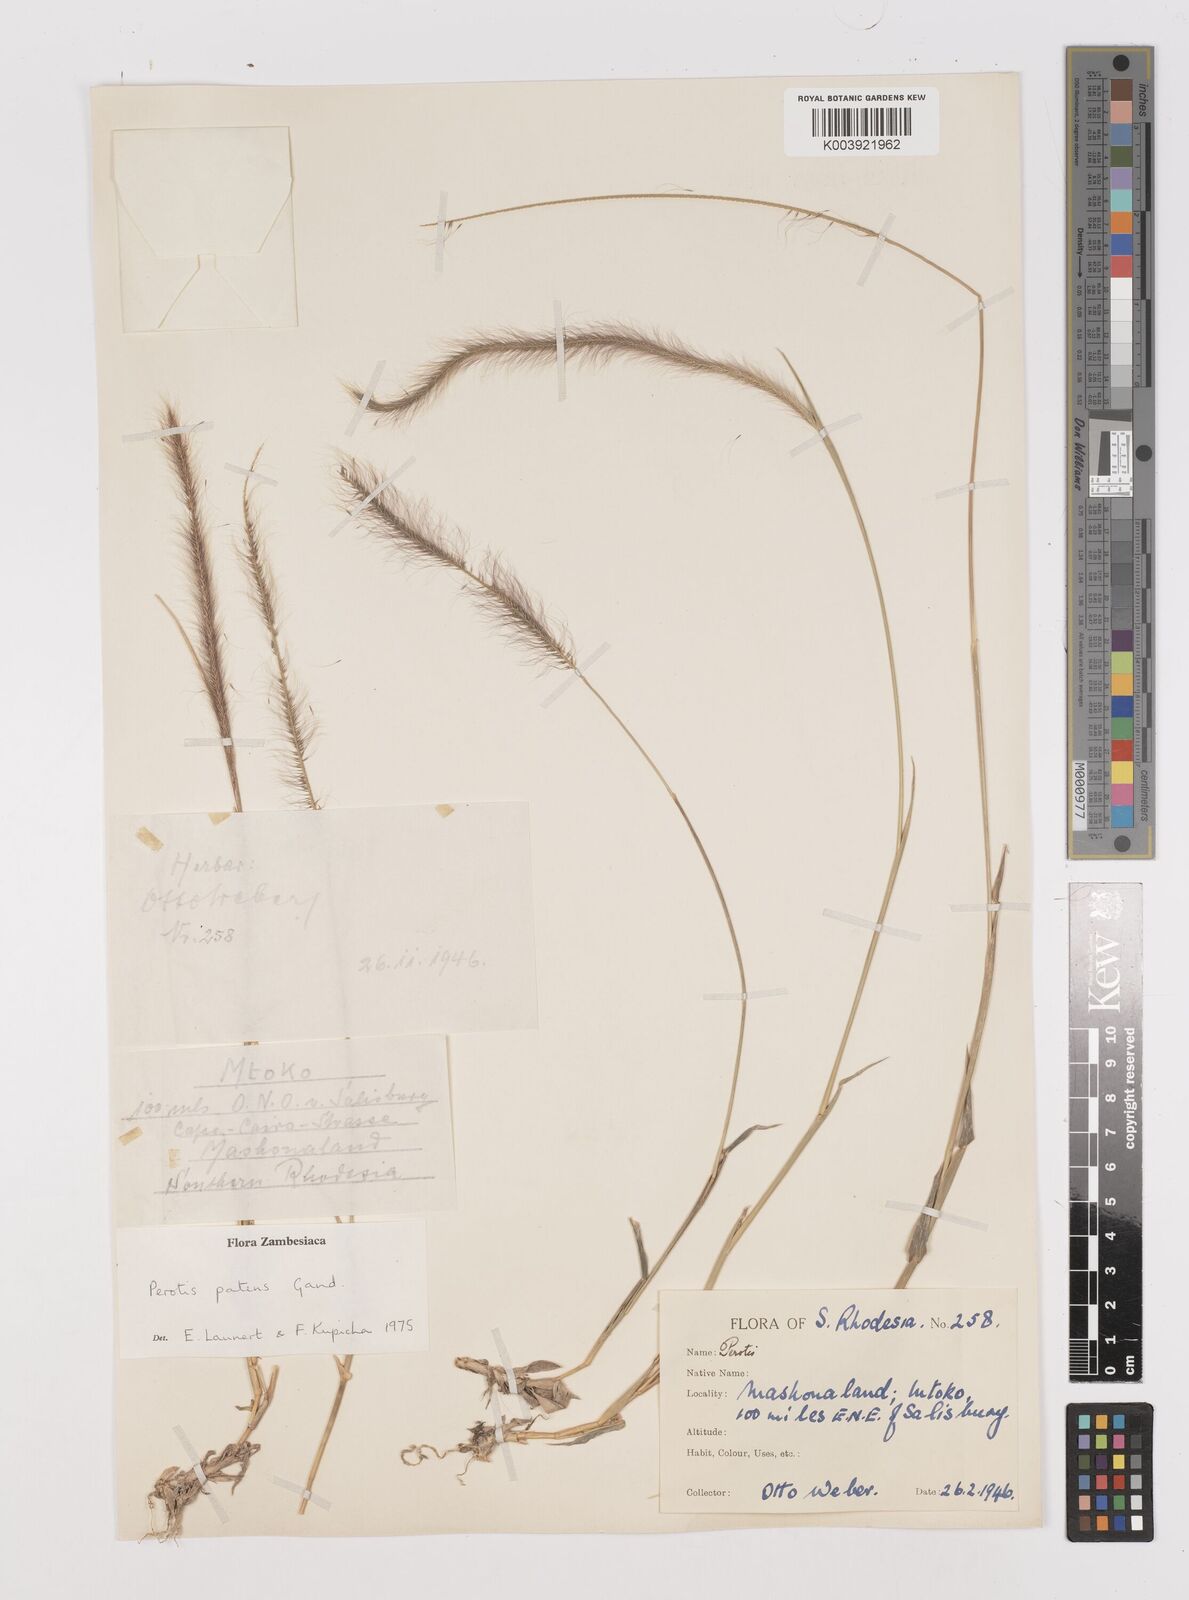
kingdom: Plantae
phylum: Tracheophyta
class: Liliopsida
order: Poales
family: Poaceae
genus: Perotis
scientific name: Perotis patens
